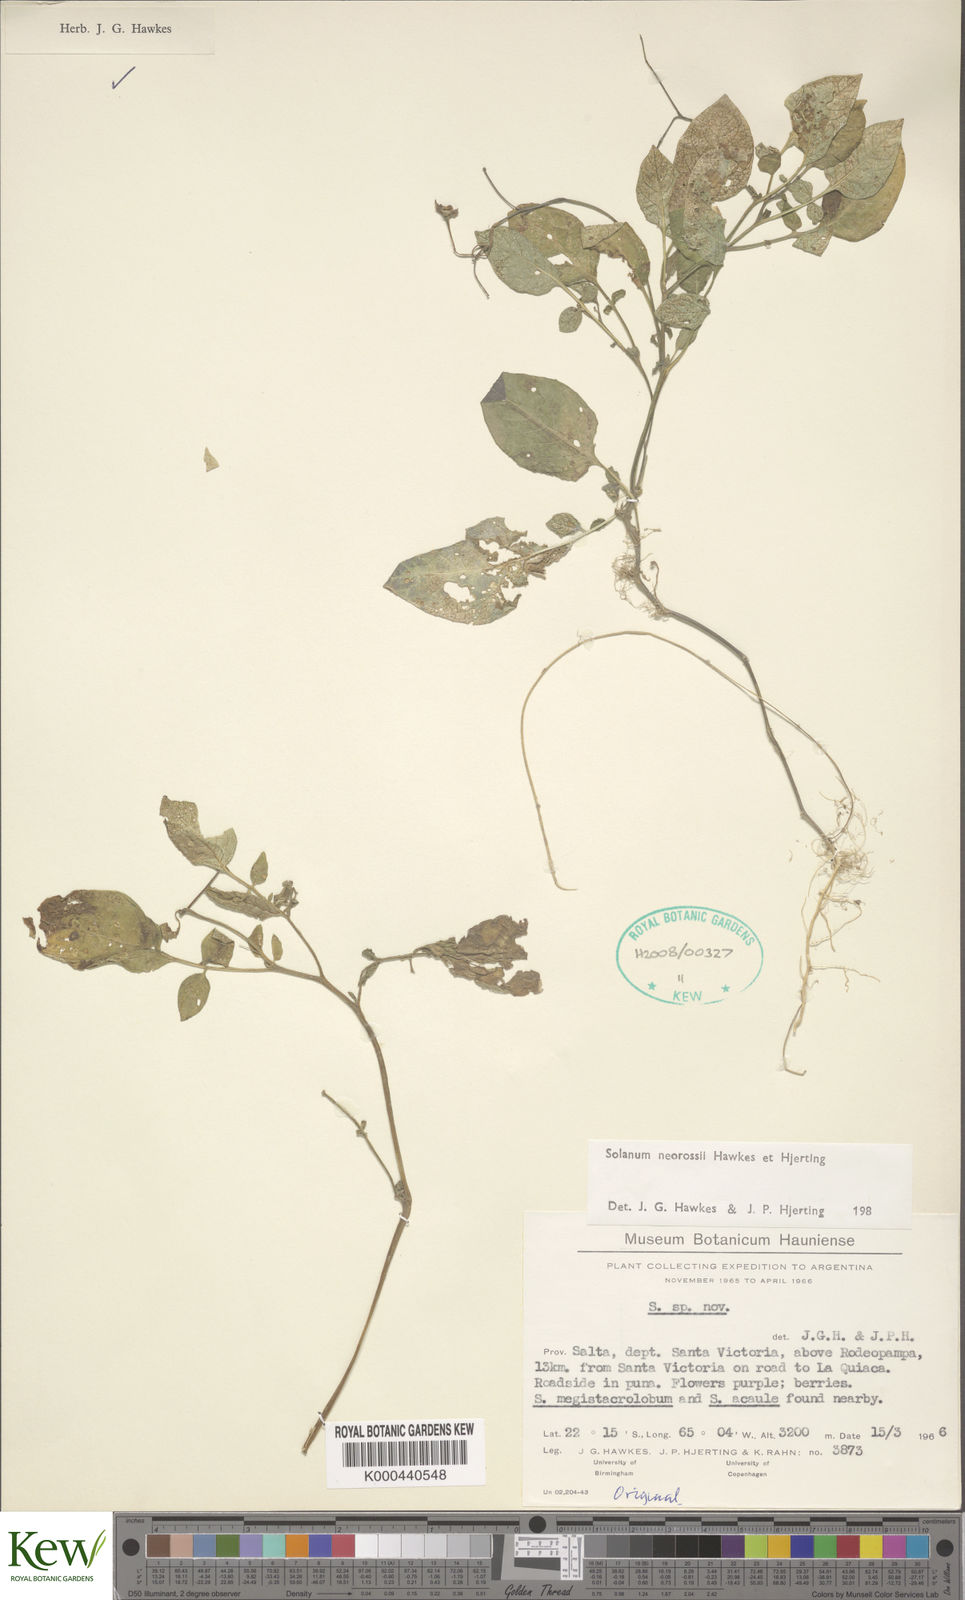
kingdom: Plantae
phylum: Tracheophyta
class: Magnoliopsida
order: Solanales
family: Solanaceae
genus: Solanum
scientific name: Solanum neorossii
